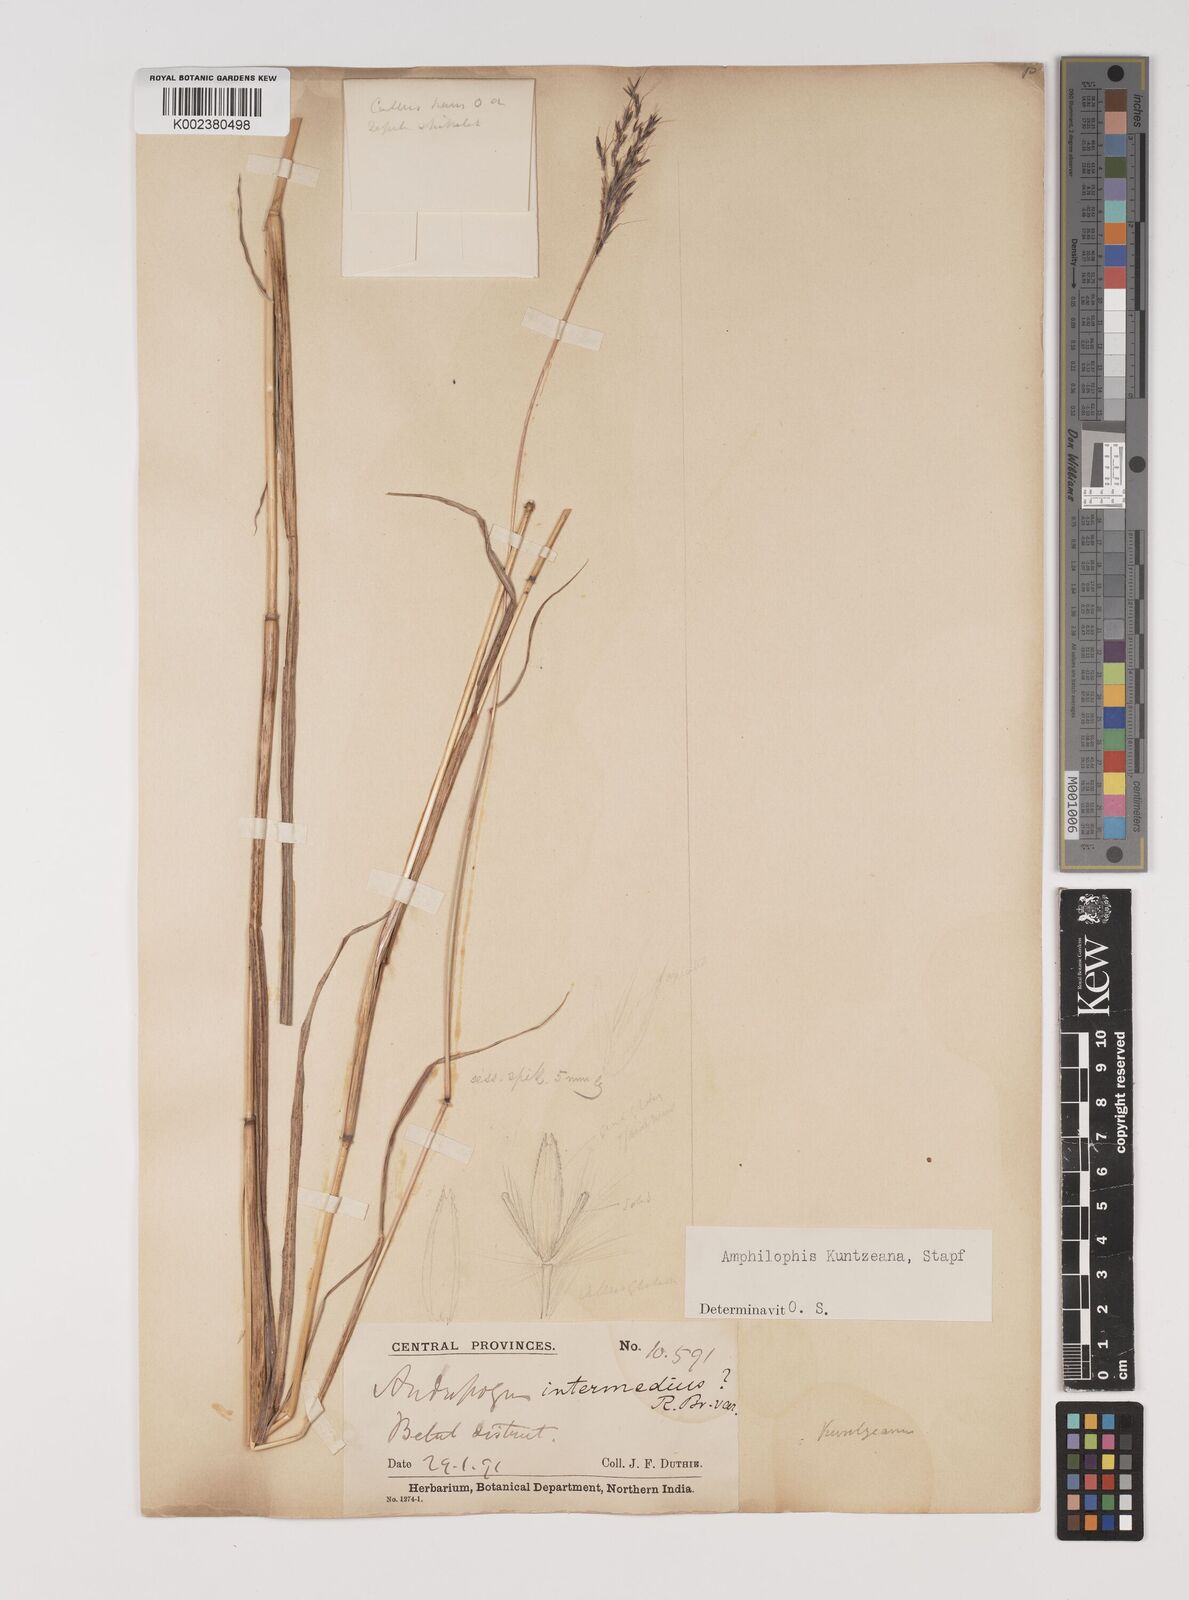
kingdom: Plantae
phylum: Tracheophyta
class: Liliopsida
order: Poales
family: Poaceae
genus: Bothriochloa
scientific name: Bothriochloa kuntzeana
